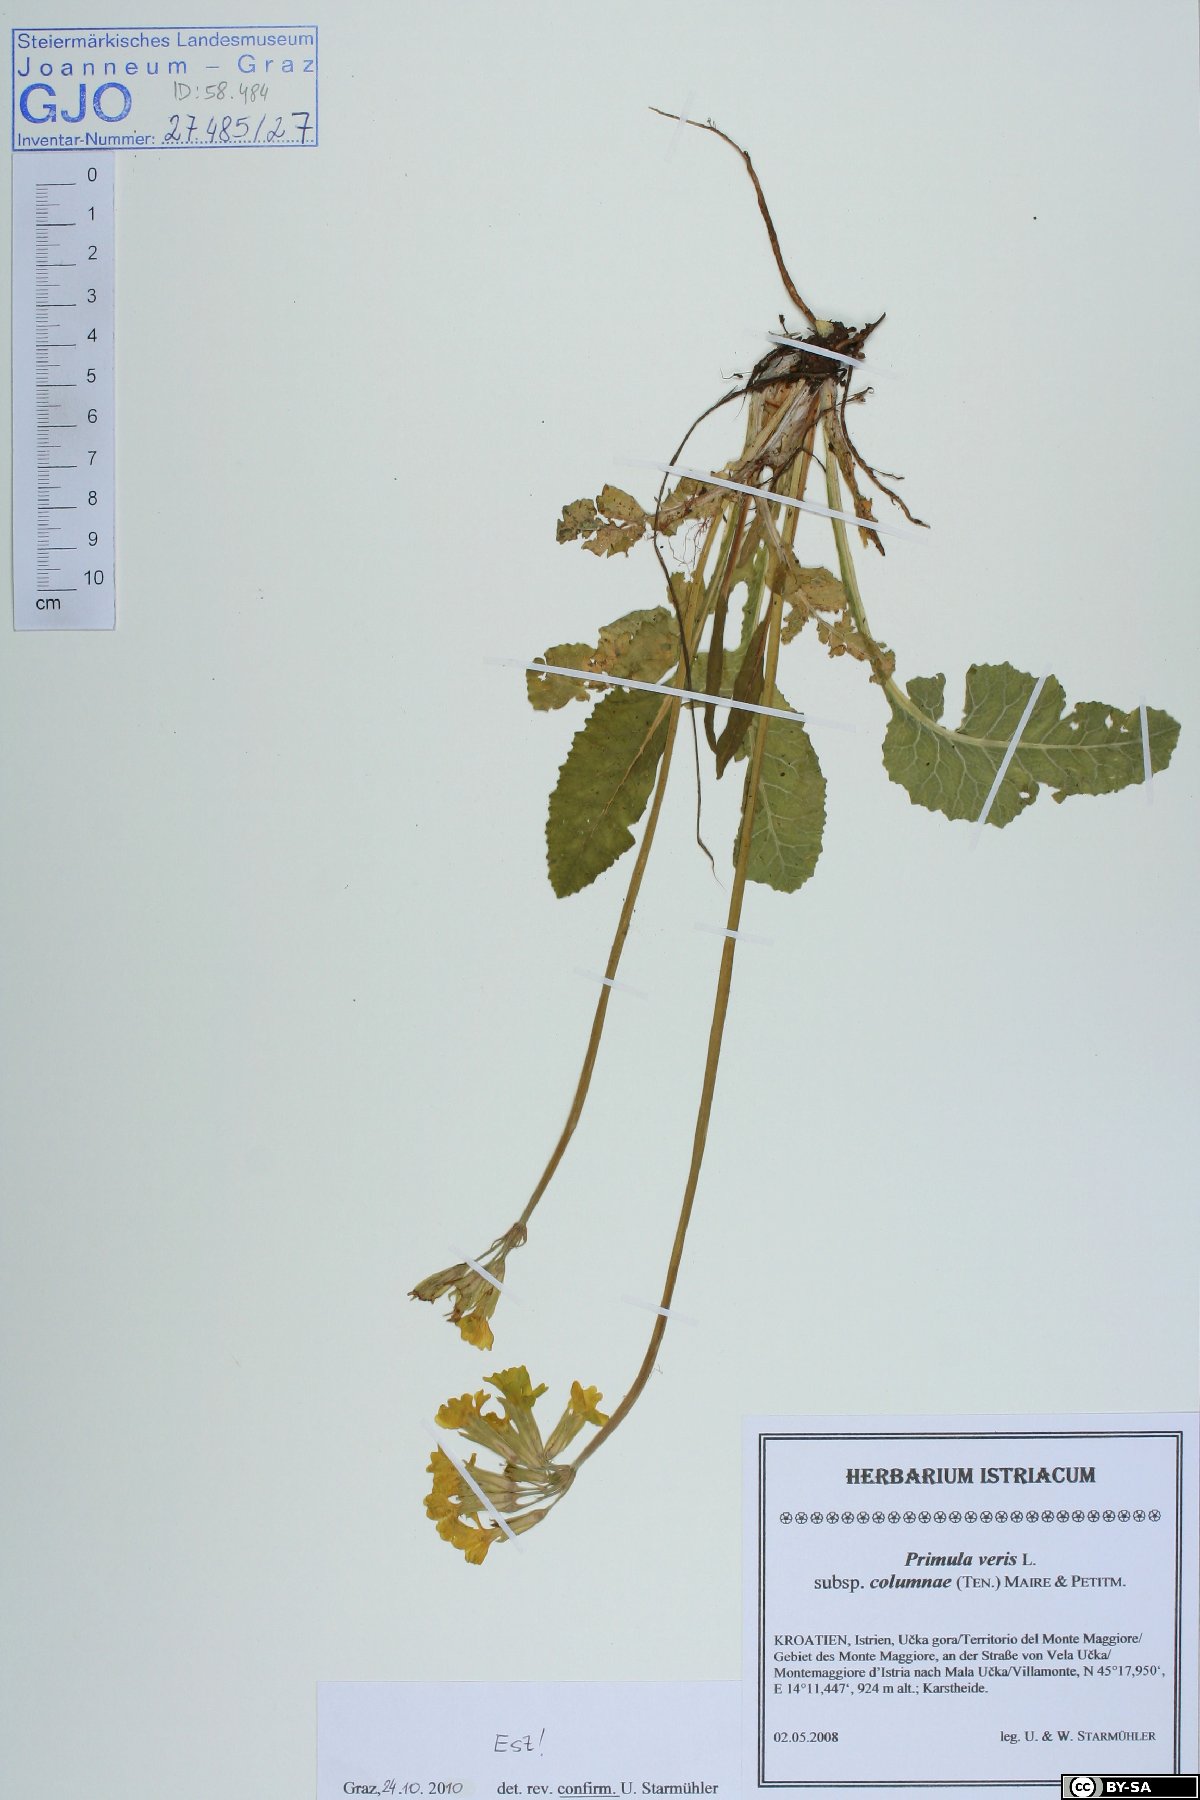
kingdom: Plantae
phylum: Tracheophyta
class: Magnoliopsida
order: Ericales
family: Primulaceae
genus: Primula
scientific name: Primula veris
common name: Cowslip
